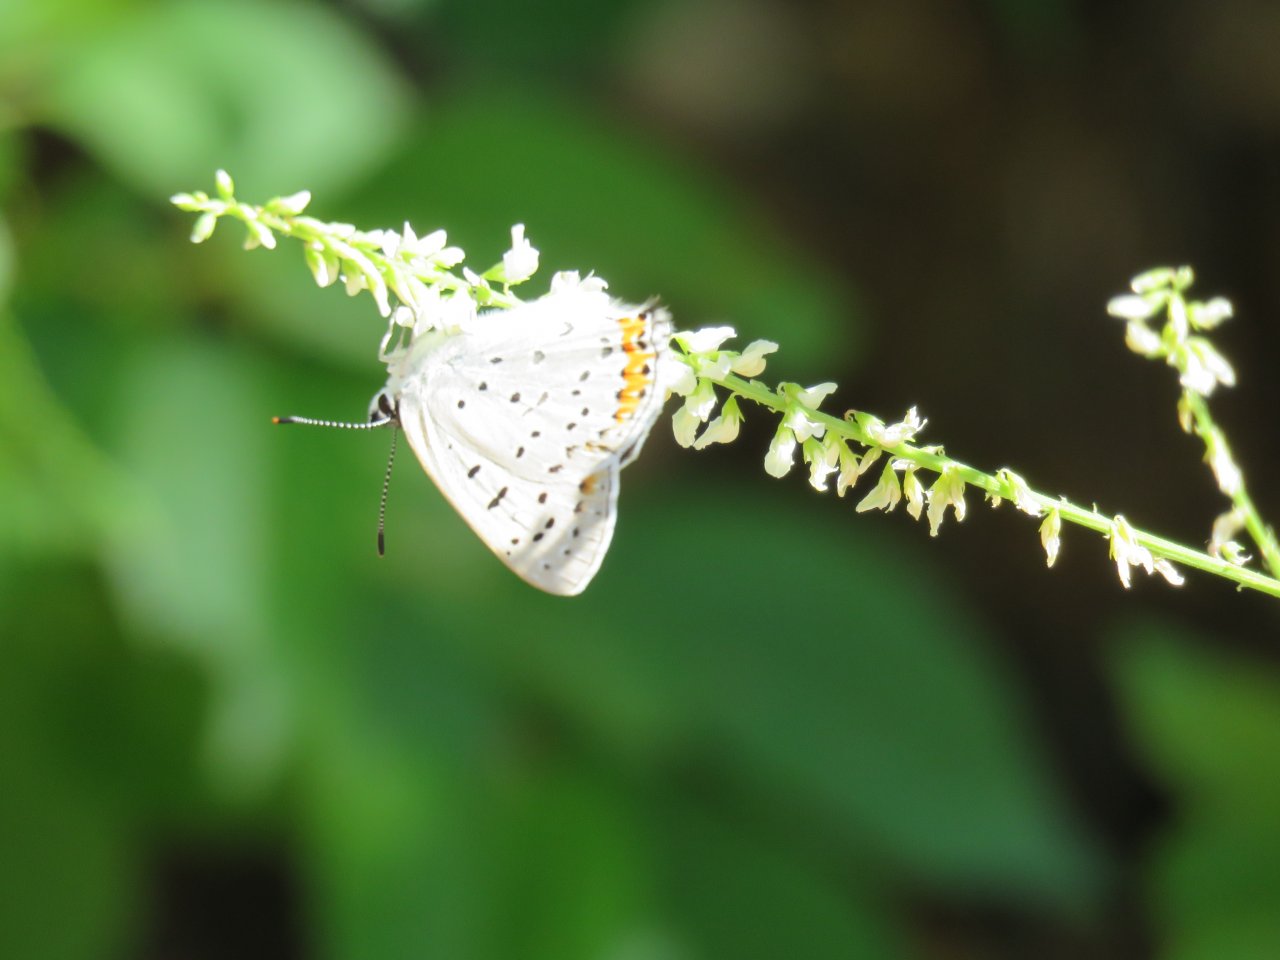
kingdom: Animalia
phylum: Arthropoda
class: Insecta
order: Lepidoptera
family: Lycaenidae
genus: Nacaduba
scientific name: Nacaduba dyopa
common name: Gray Copper
